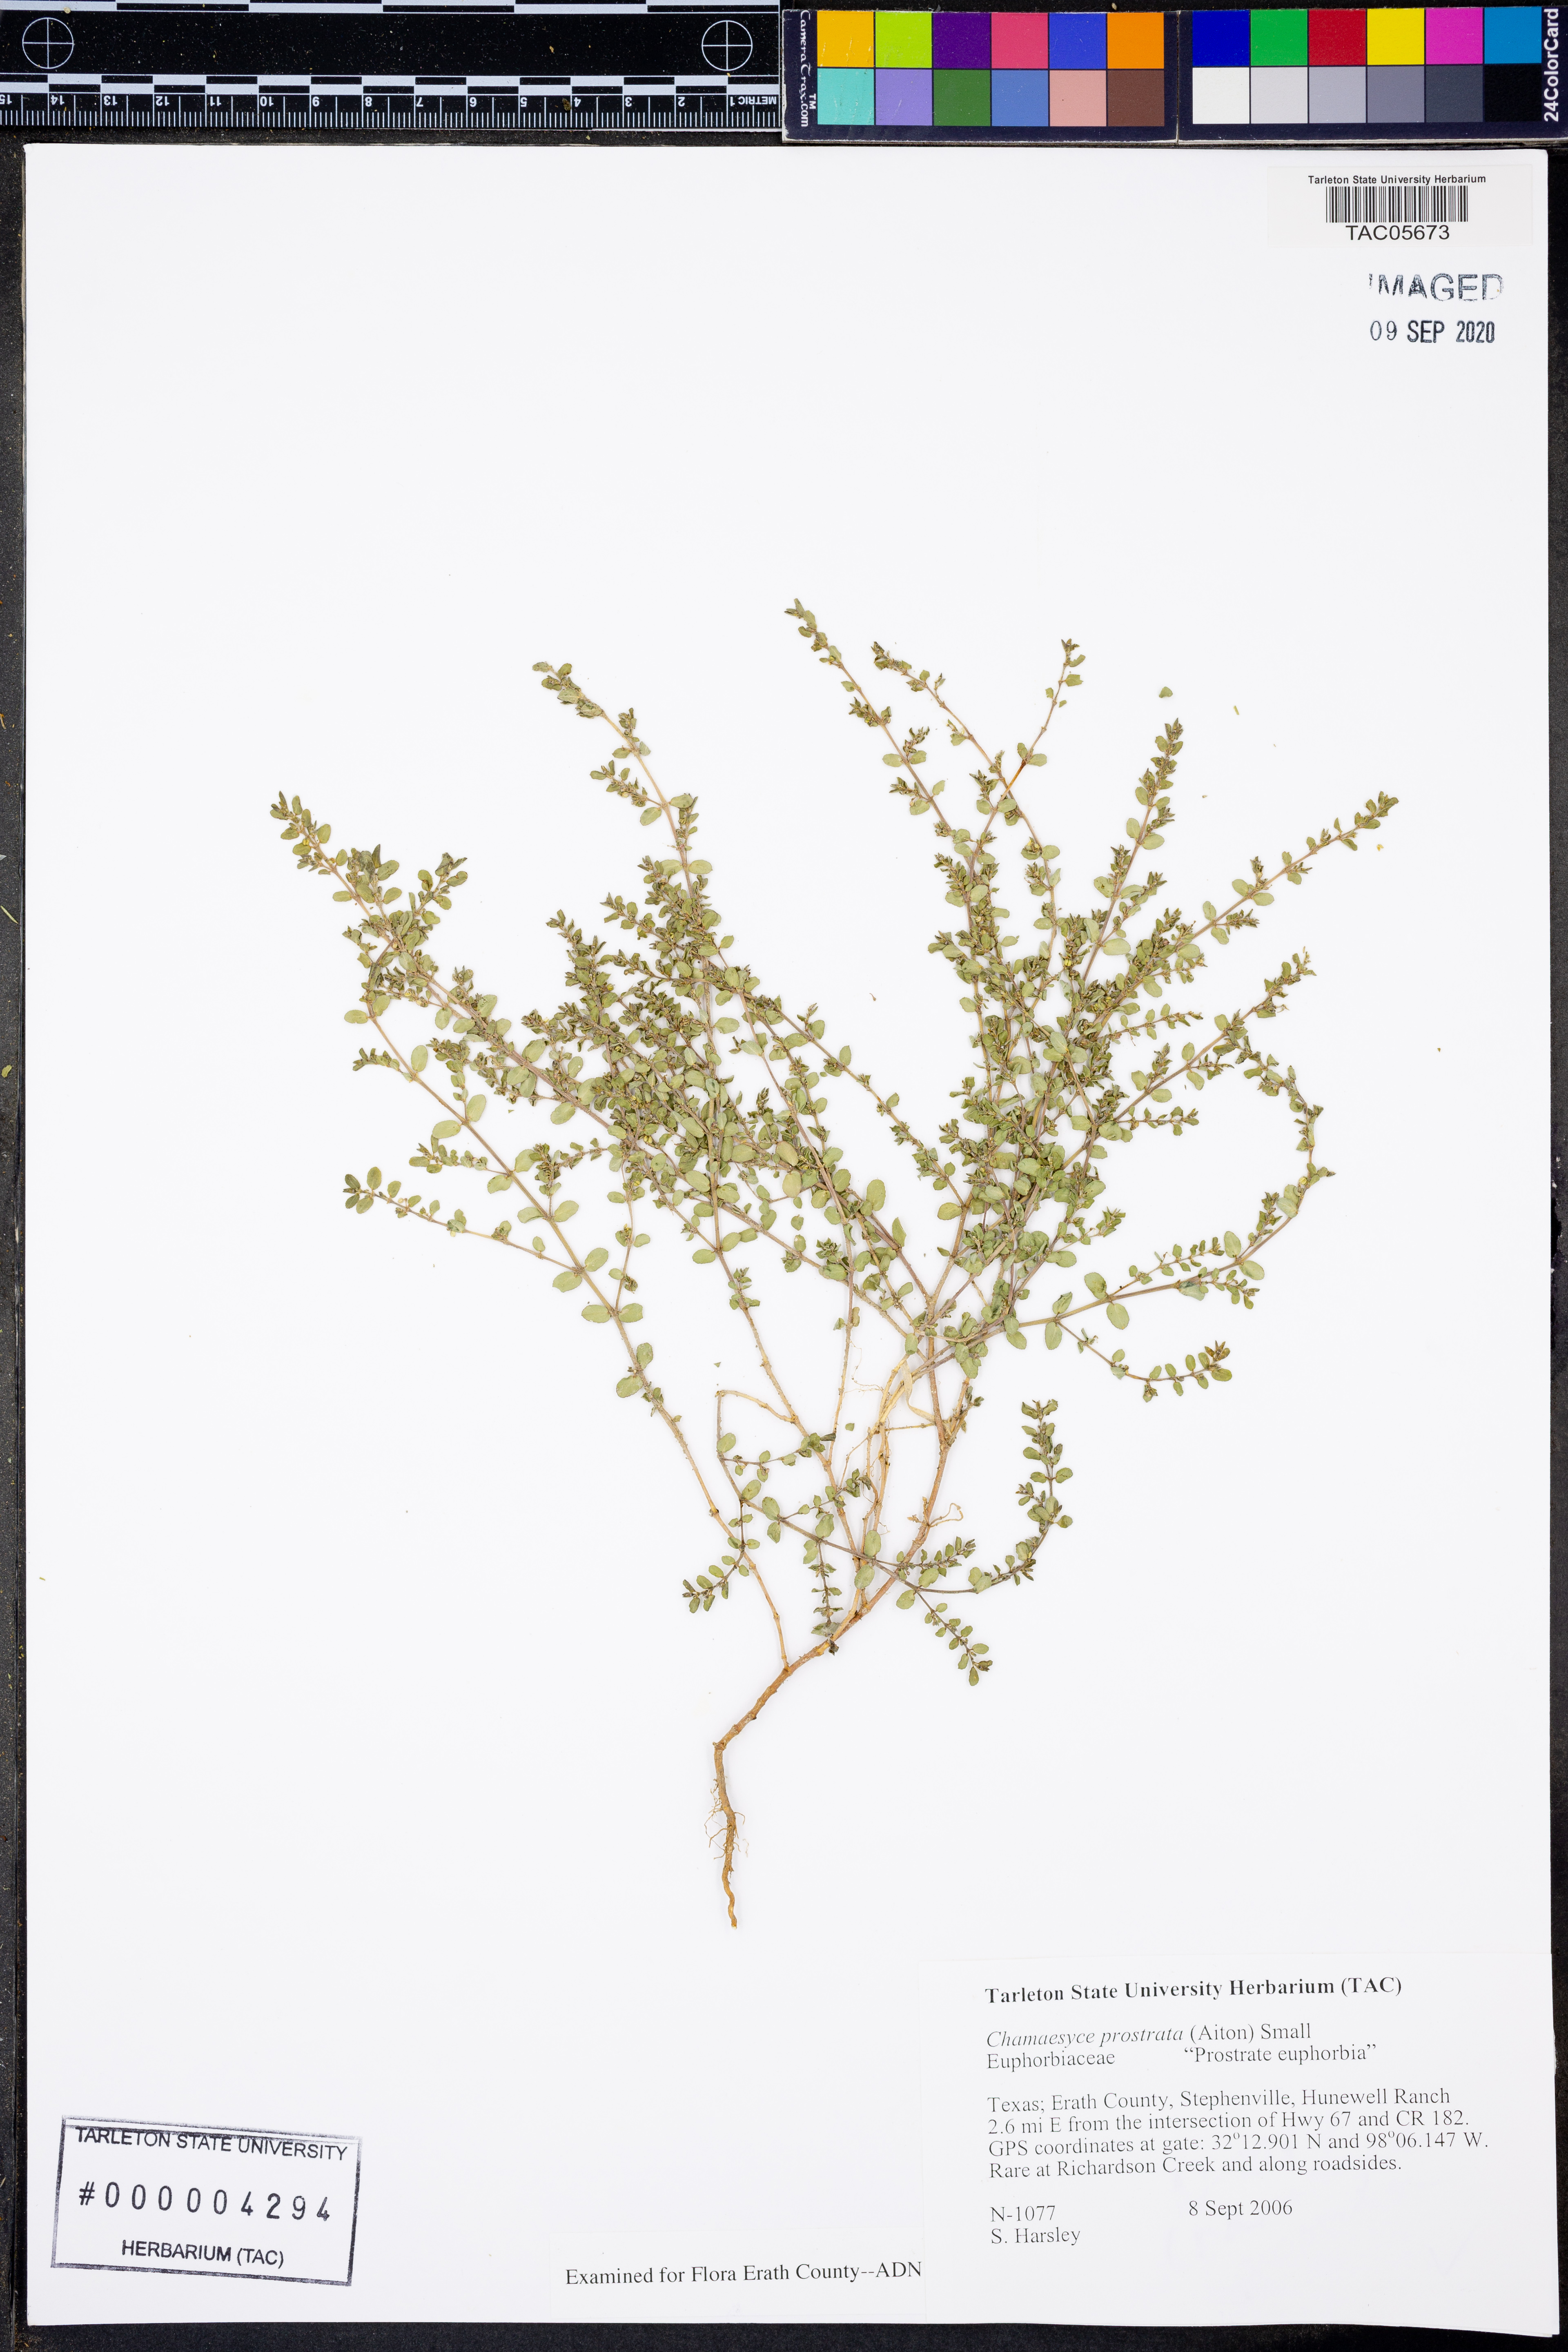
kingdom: Plantae
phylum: Tracheophyta
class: Magnoliopsida
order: Malpighiales
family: Euphorbiaceae
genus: Euphorbia
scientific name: Euphorbia prostrata
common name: Prostrate sandmat
